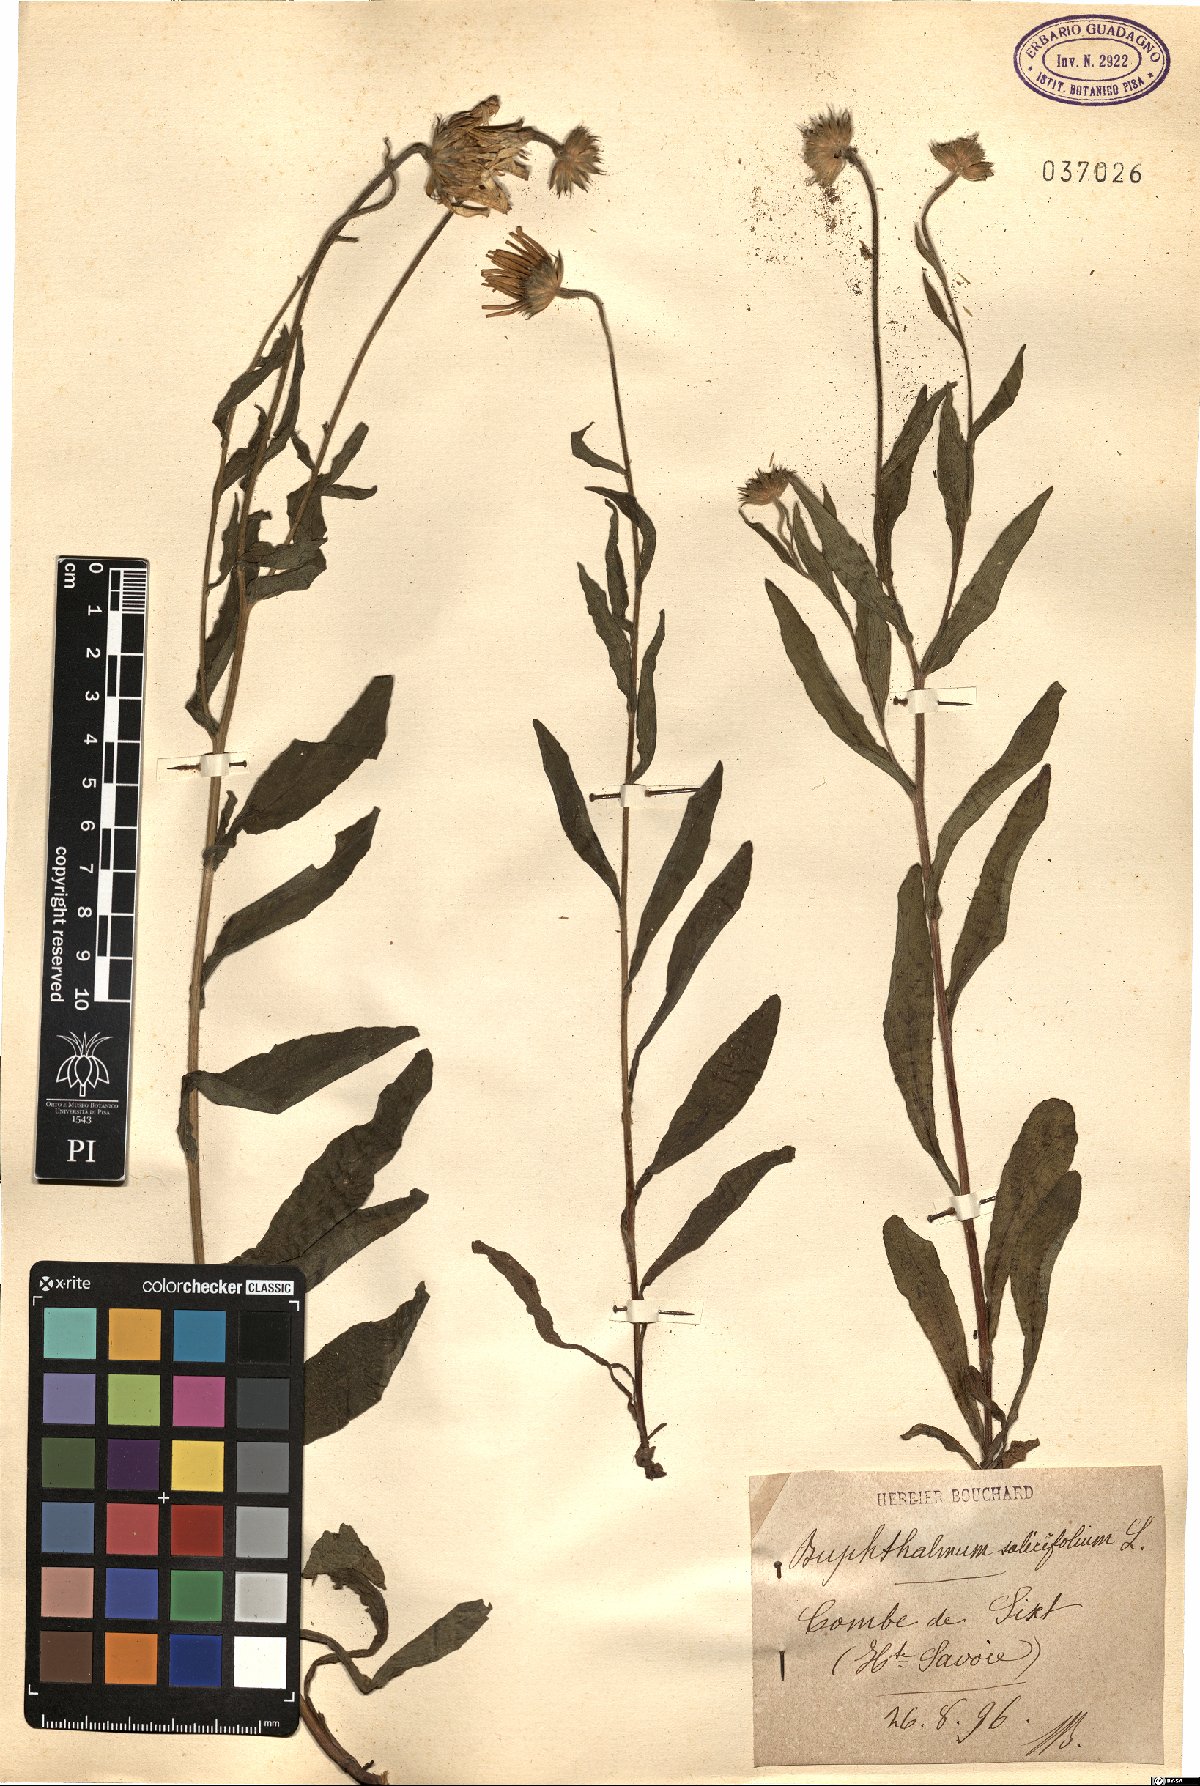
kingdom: Plantae
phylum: Tracheophyta
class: Magnoliopsida
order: Asterales
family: Asteraceae
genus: Buphthalmum
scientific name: Buphthalmum salicifolium
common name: Willow-leaved yellow-oxeye
